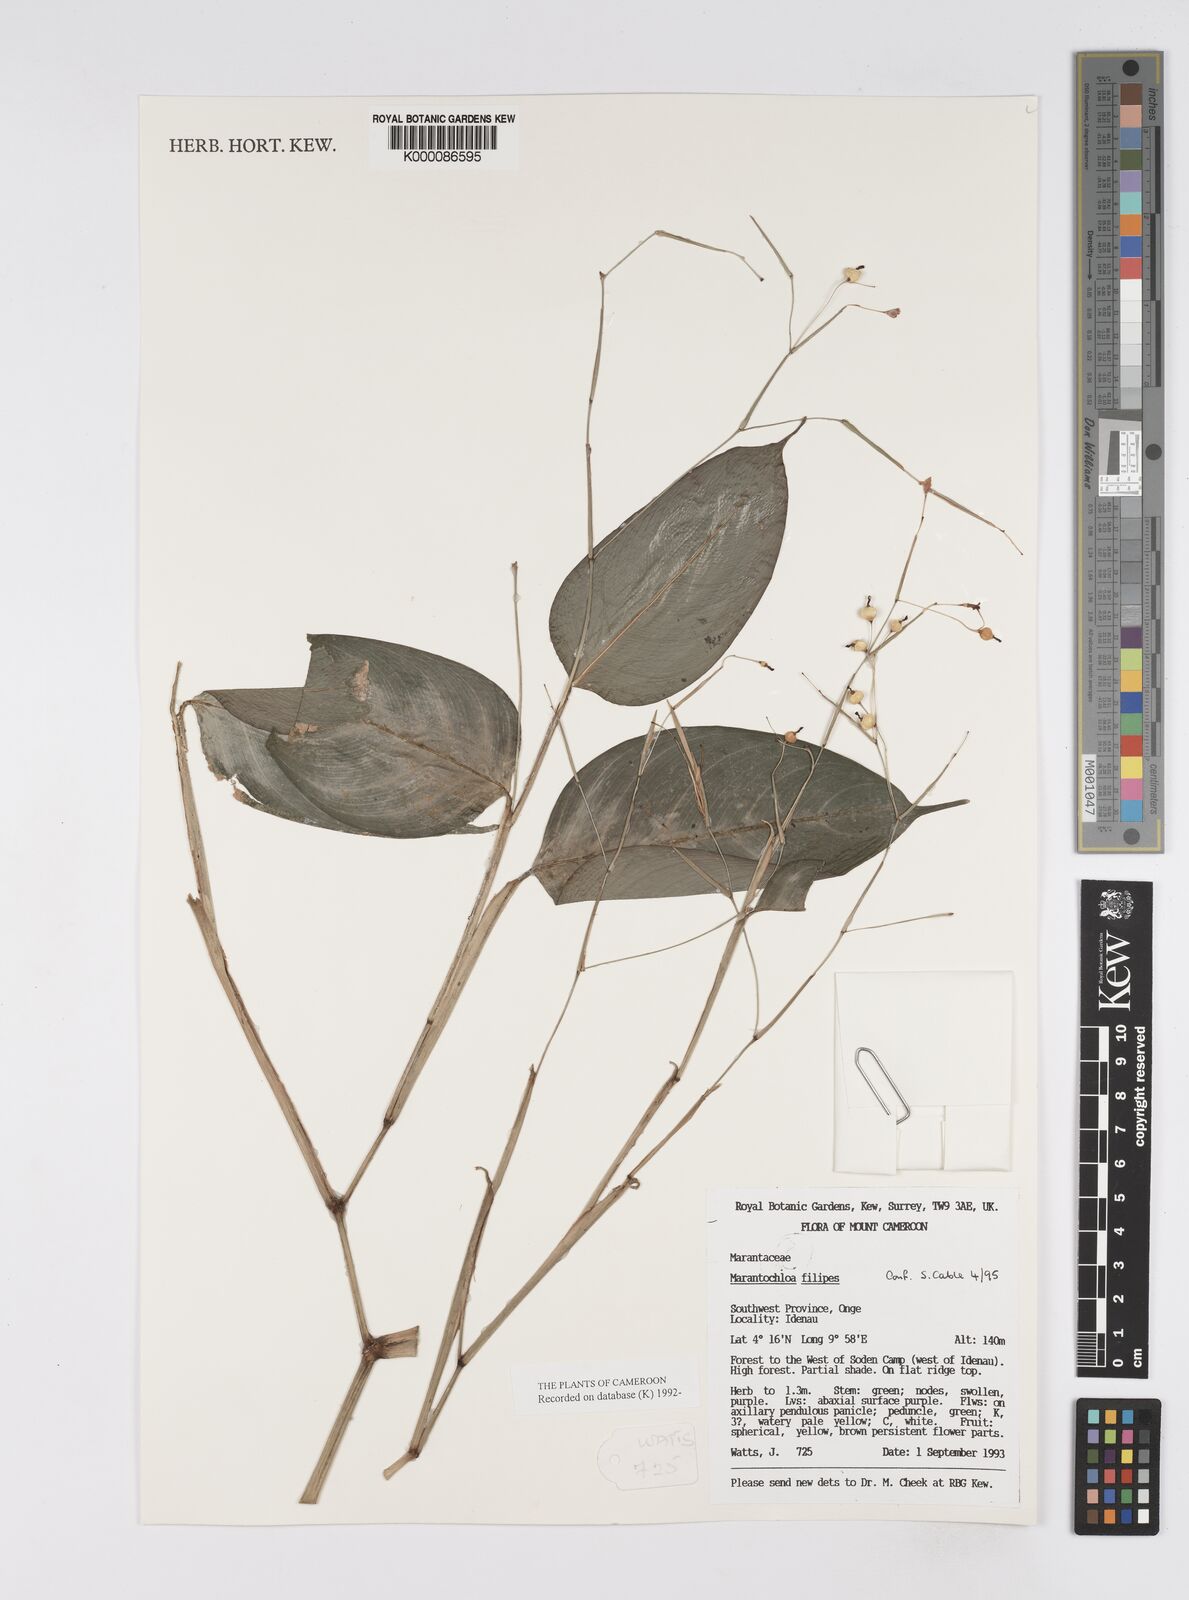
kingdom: Plantae
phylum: Tracheophyta
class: Liliopsida
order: Zingiberales
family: Marantaceae
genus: Marantochloa
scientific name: Marantochloa filipes
